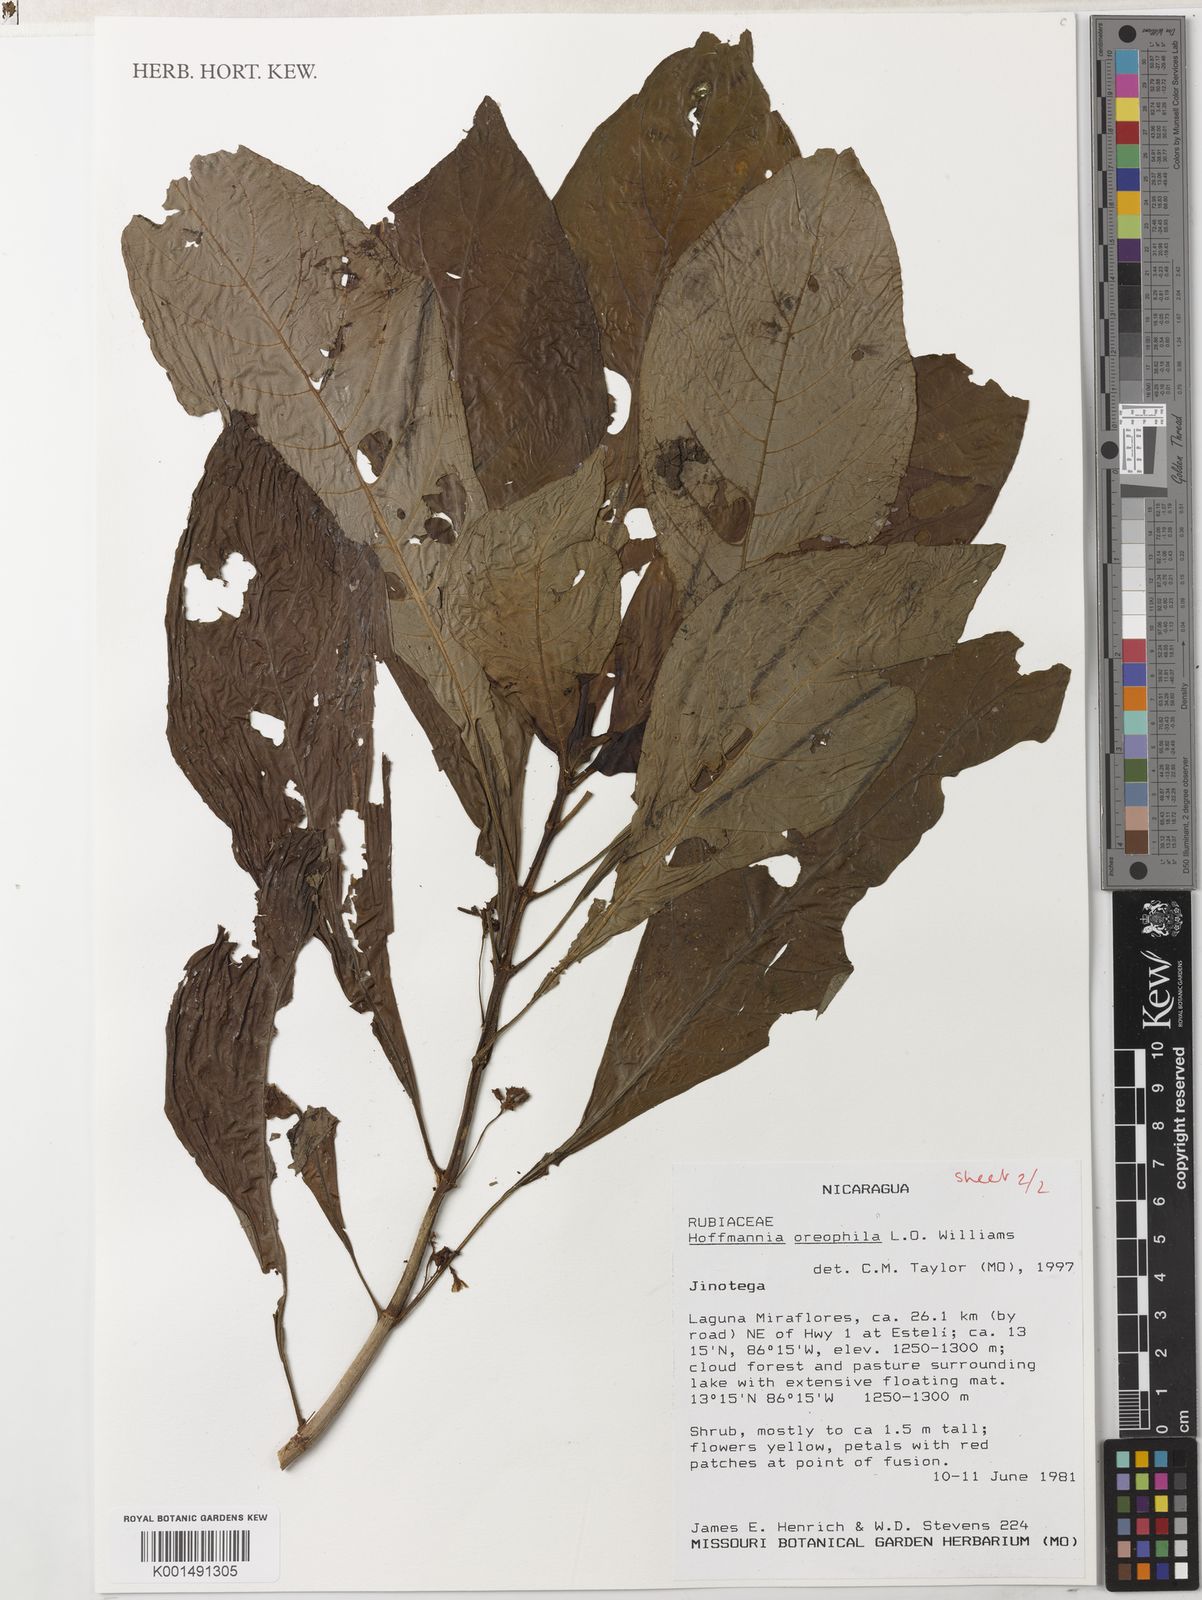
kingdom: Plantae
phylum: Tracheophyta
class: Magnoliopsida
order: Gentianales
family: Rubiaceae
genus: Hoffmannia
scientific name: Hoffmannia psychotriifolia
